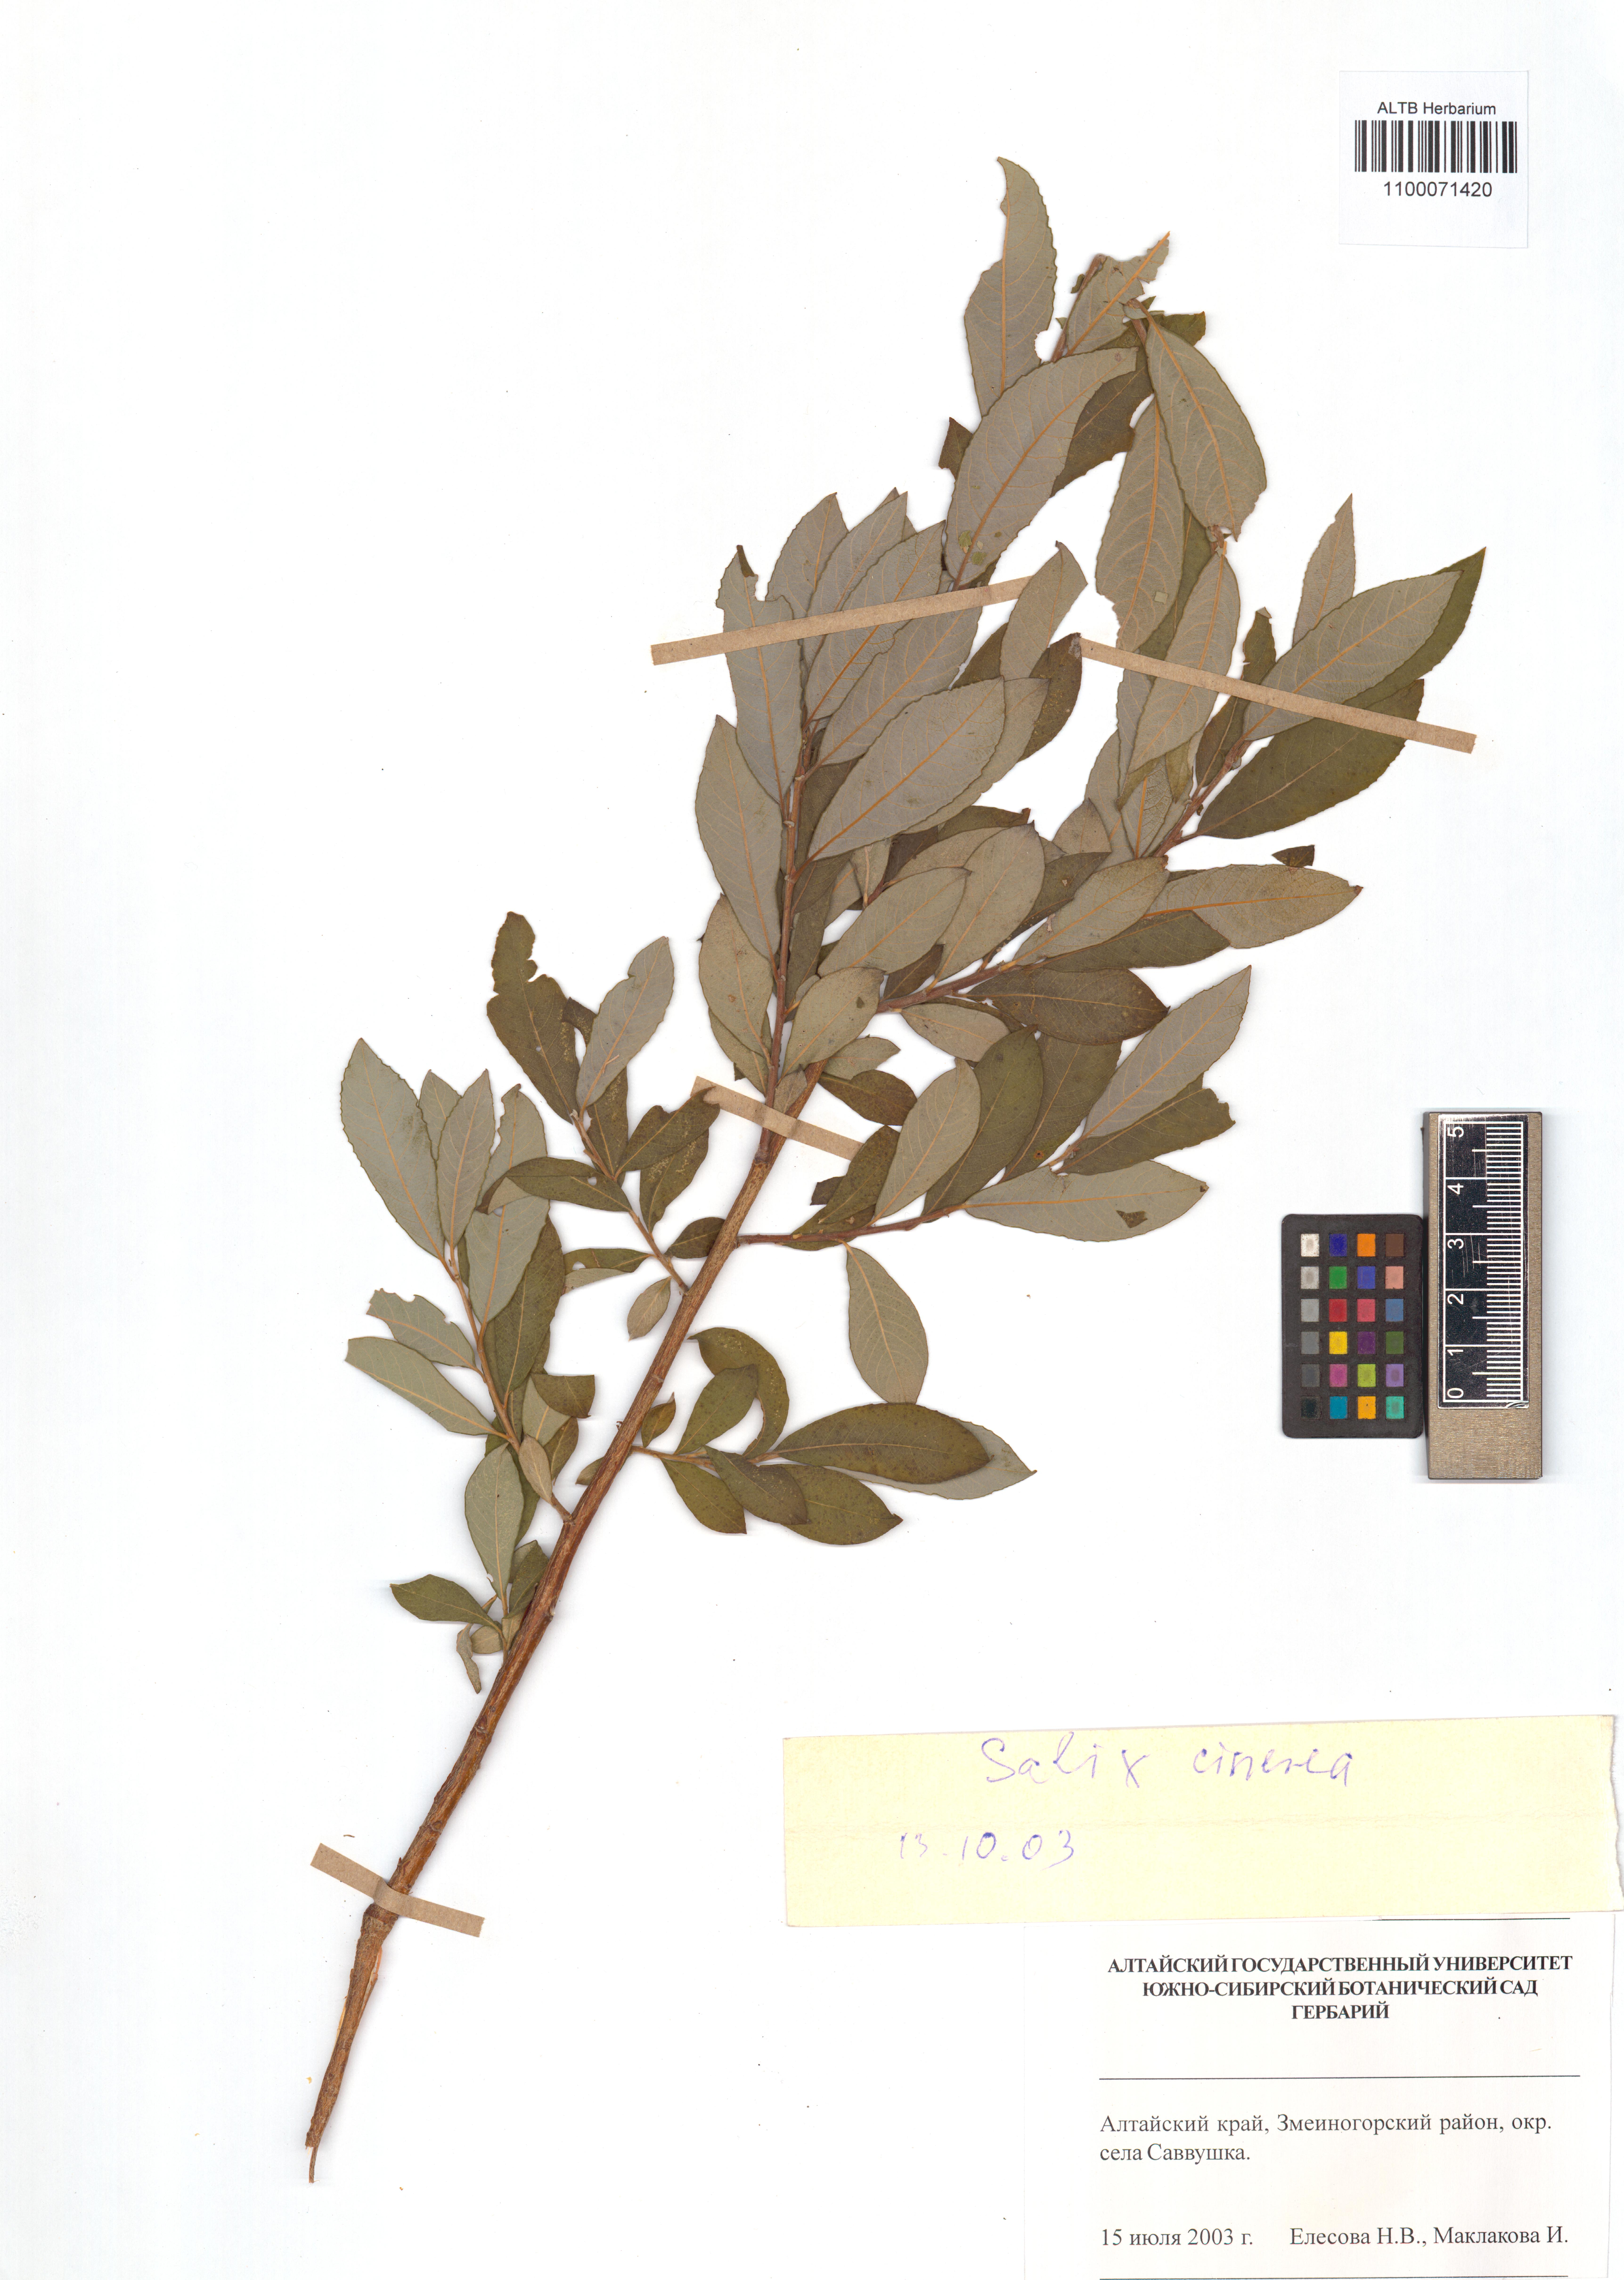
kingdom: Plantae
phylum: Tracheophyta
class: Magnoliopsida
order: Malpighiales
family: Salicaceae
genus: Salix
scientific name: Salix cinerea
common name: Common sallow
